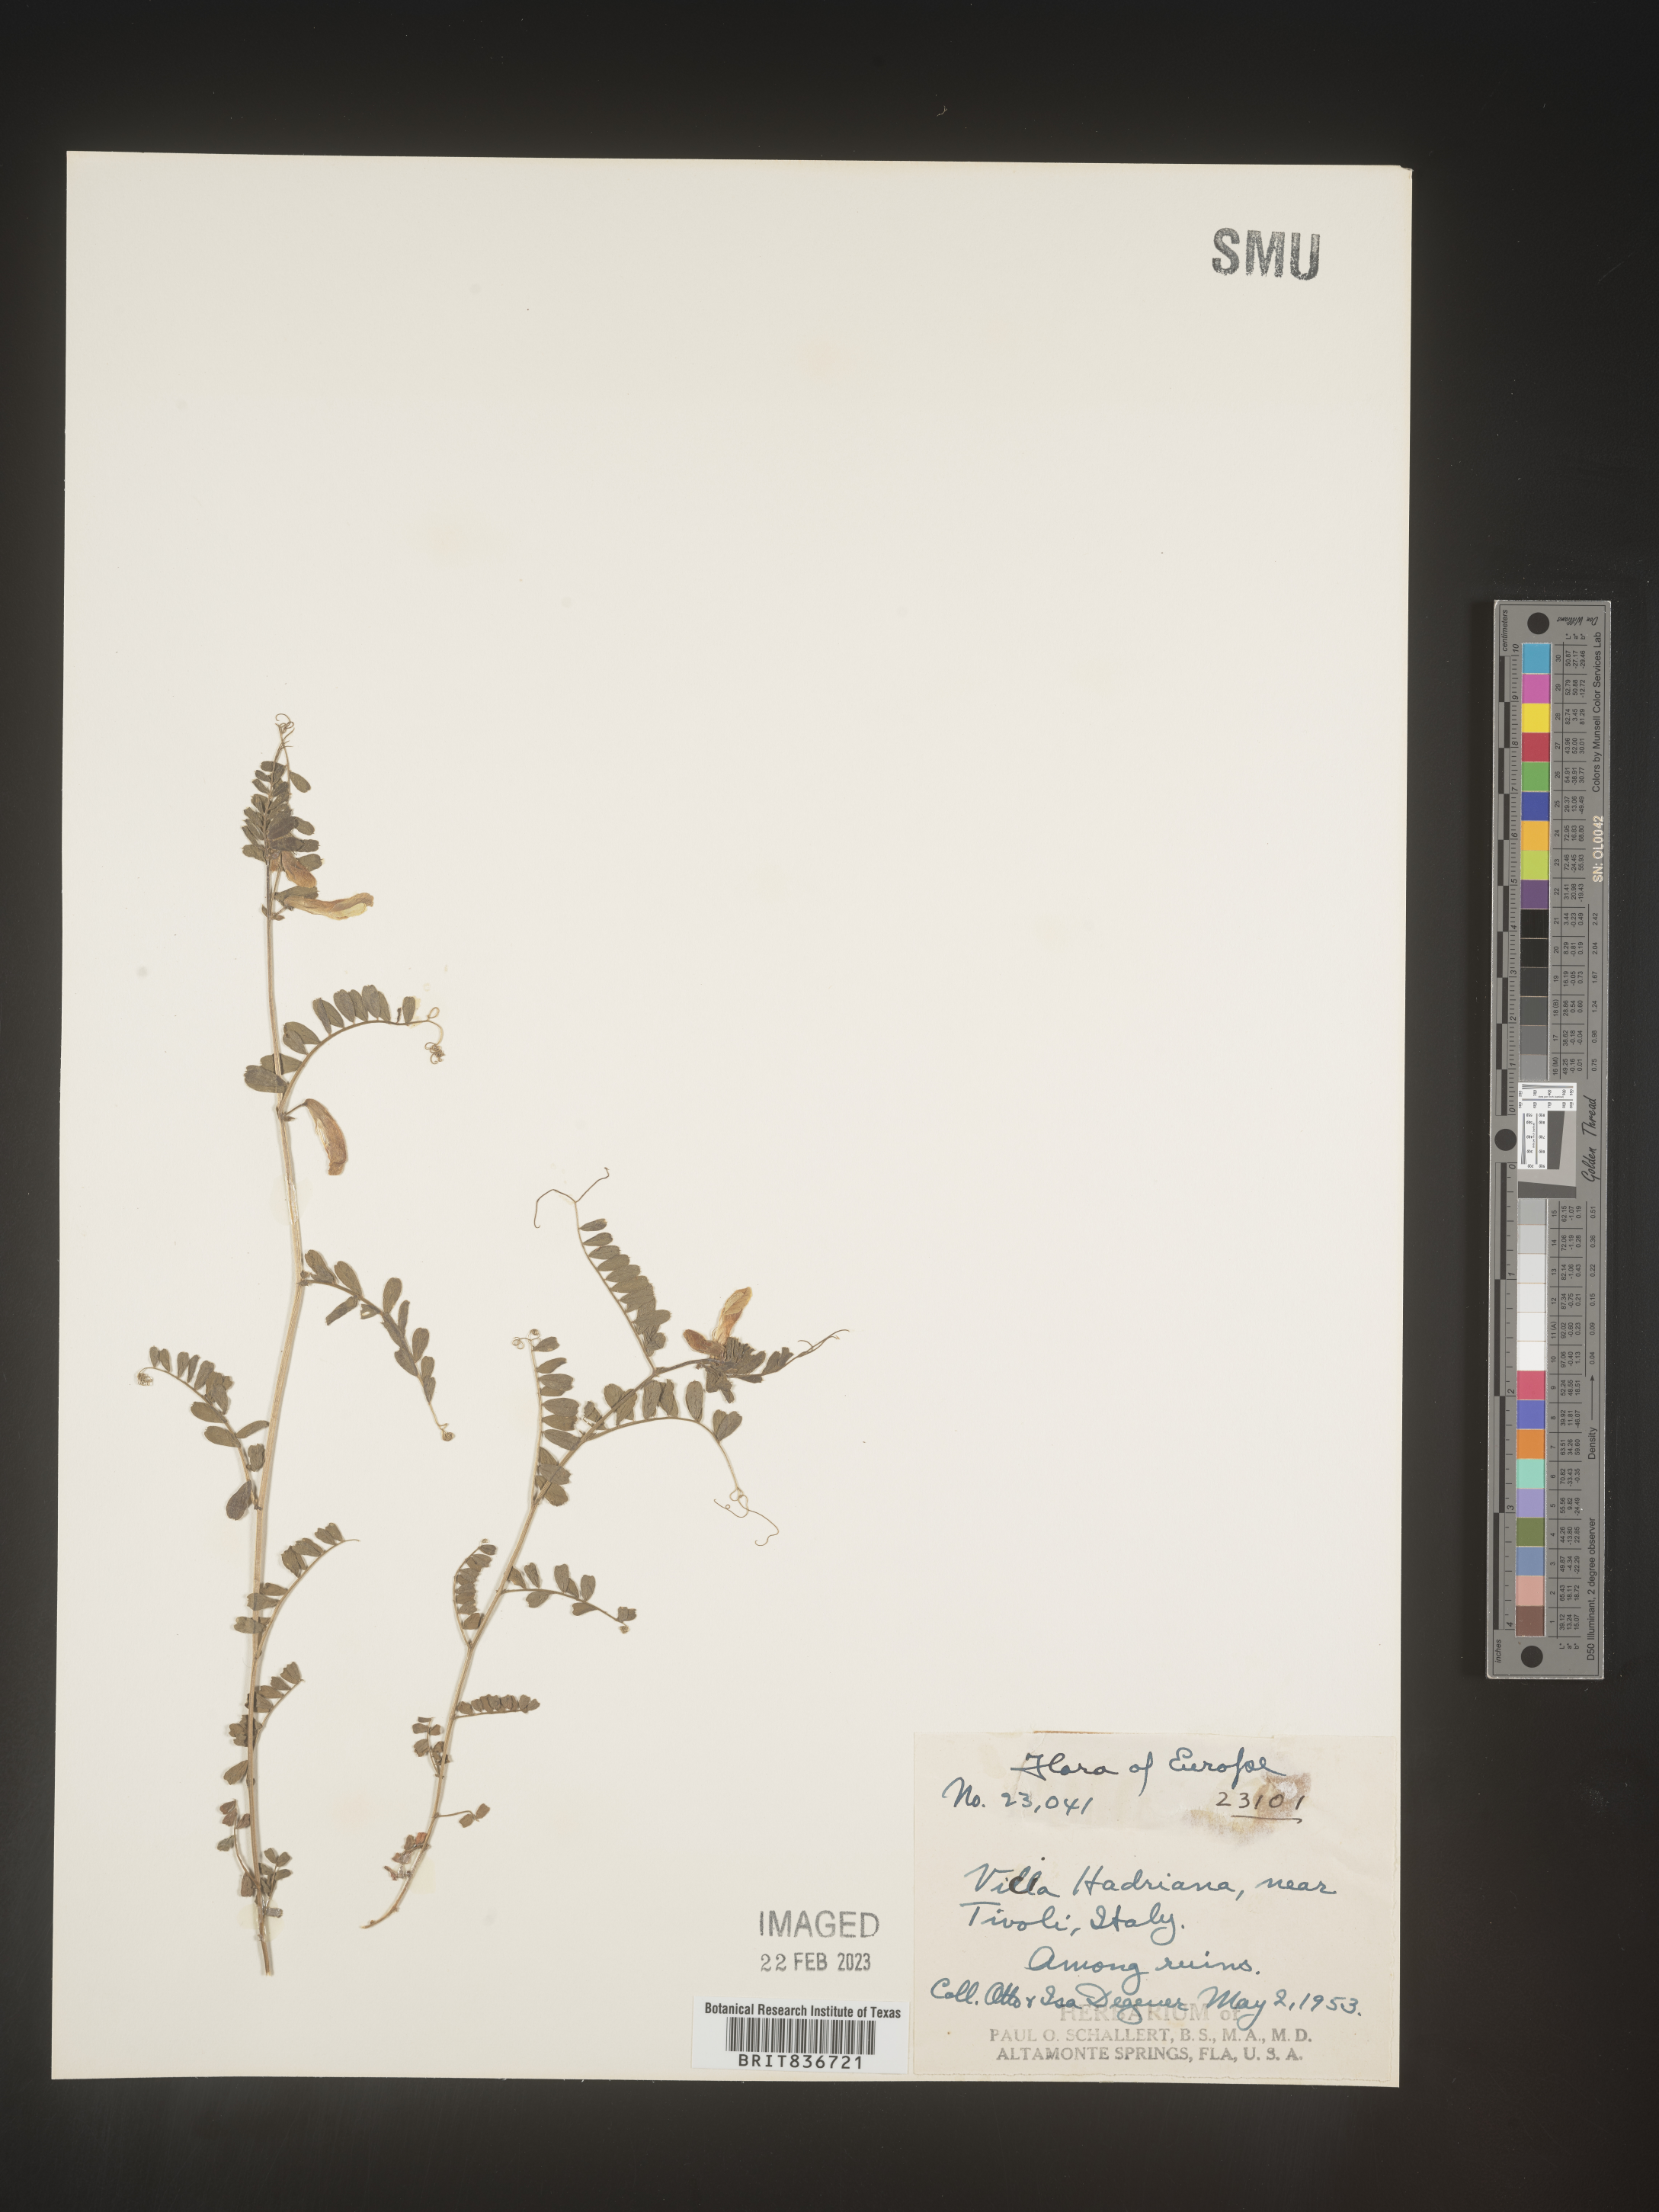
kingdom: Plantae
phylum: Tracheophyta
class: Magnoliopsida
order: Fabales
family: Fabaceae
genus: Vicia
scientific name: Vicia
